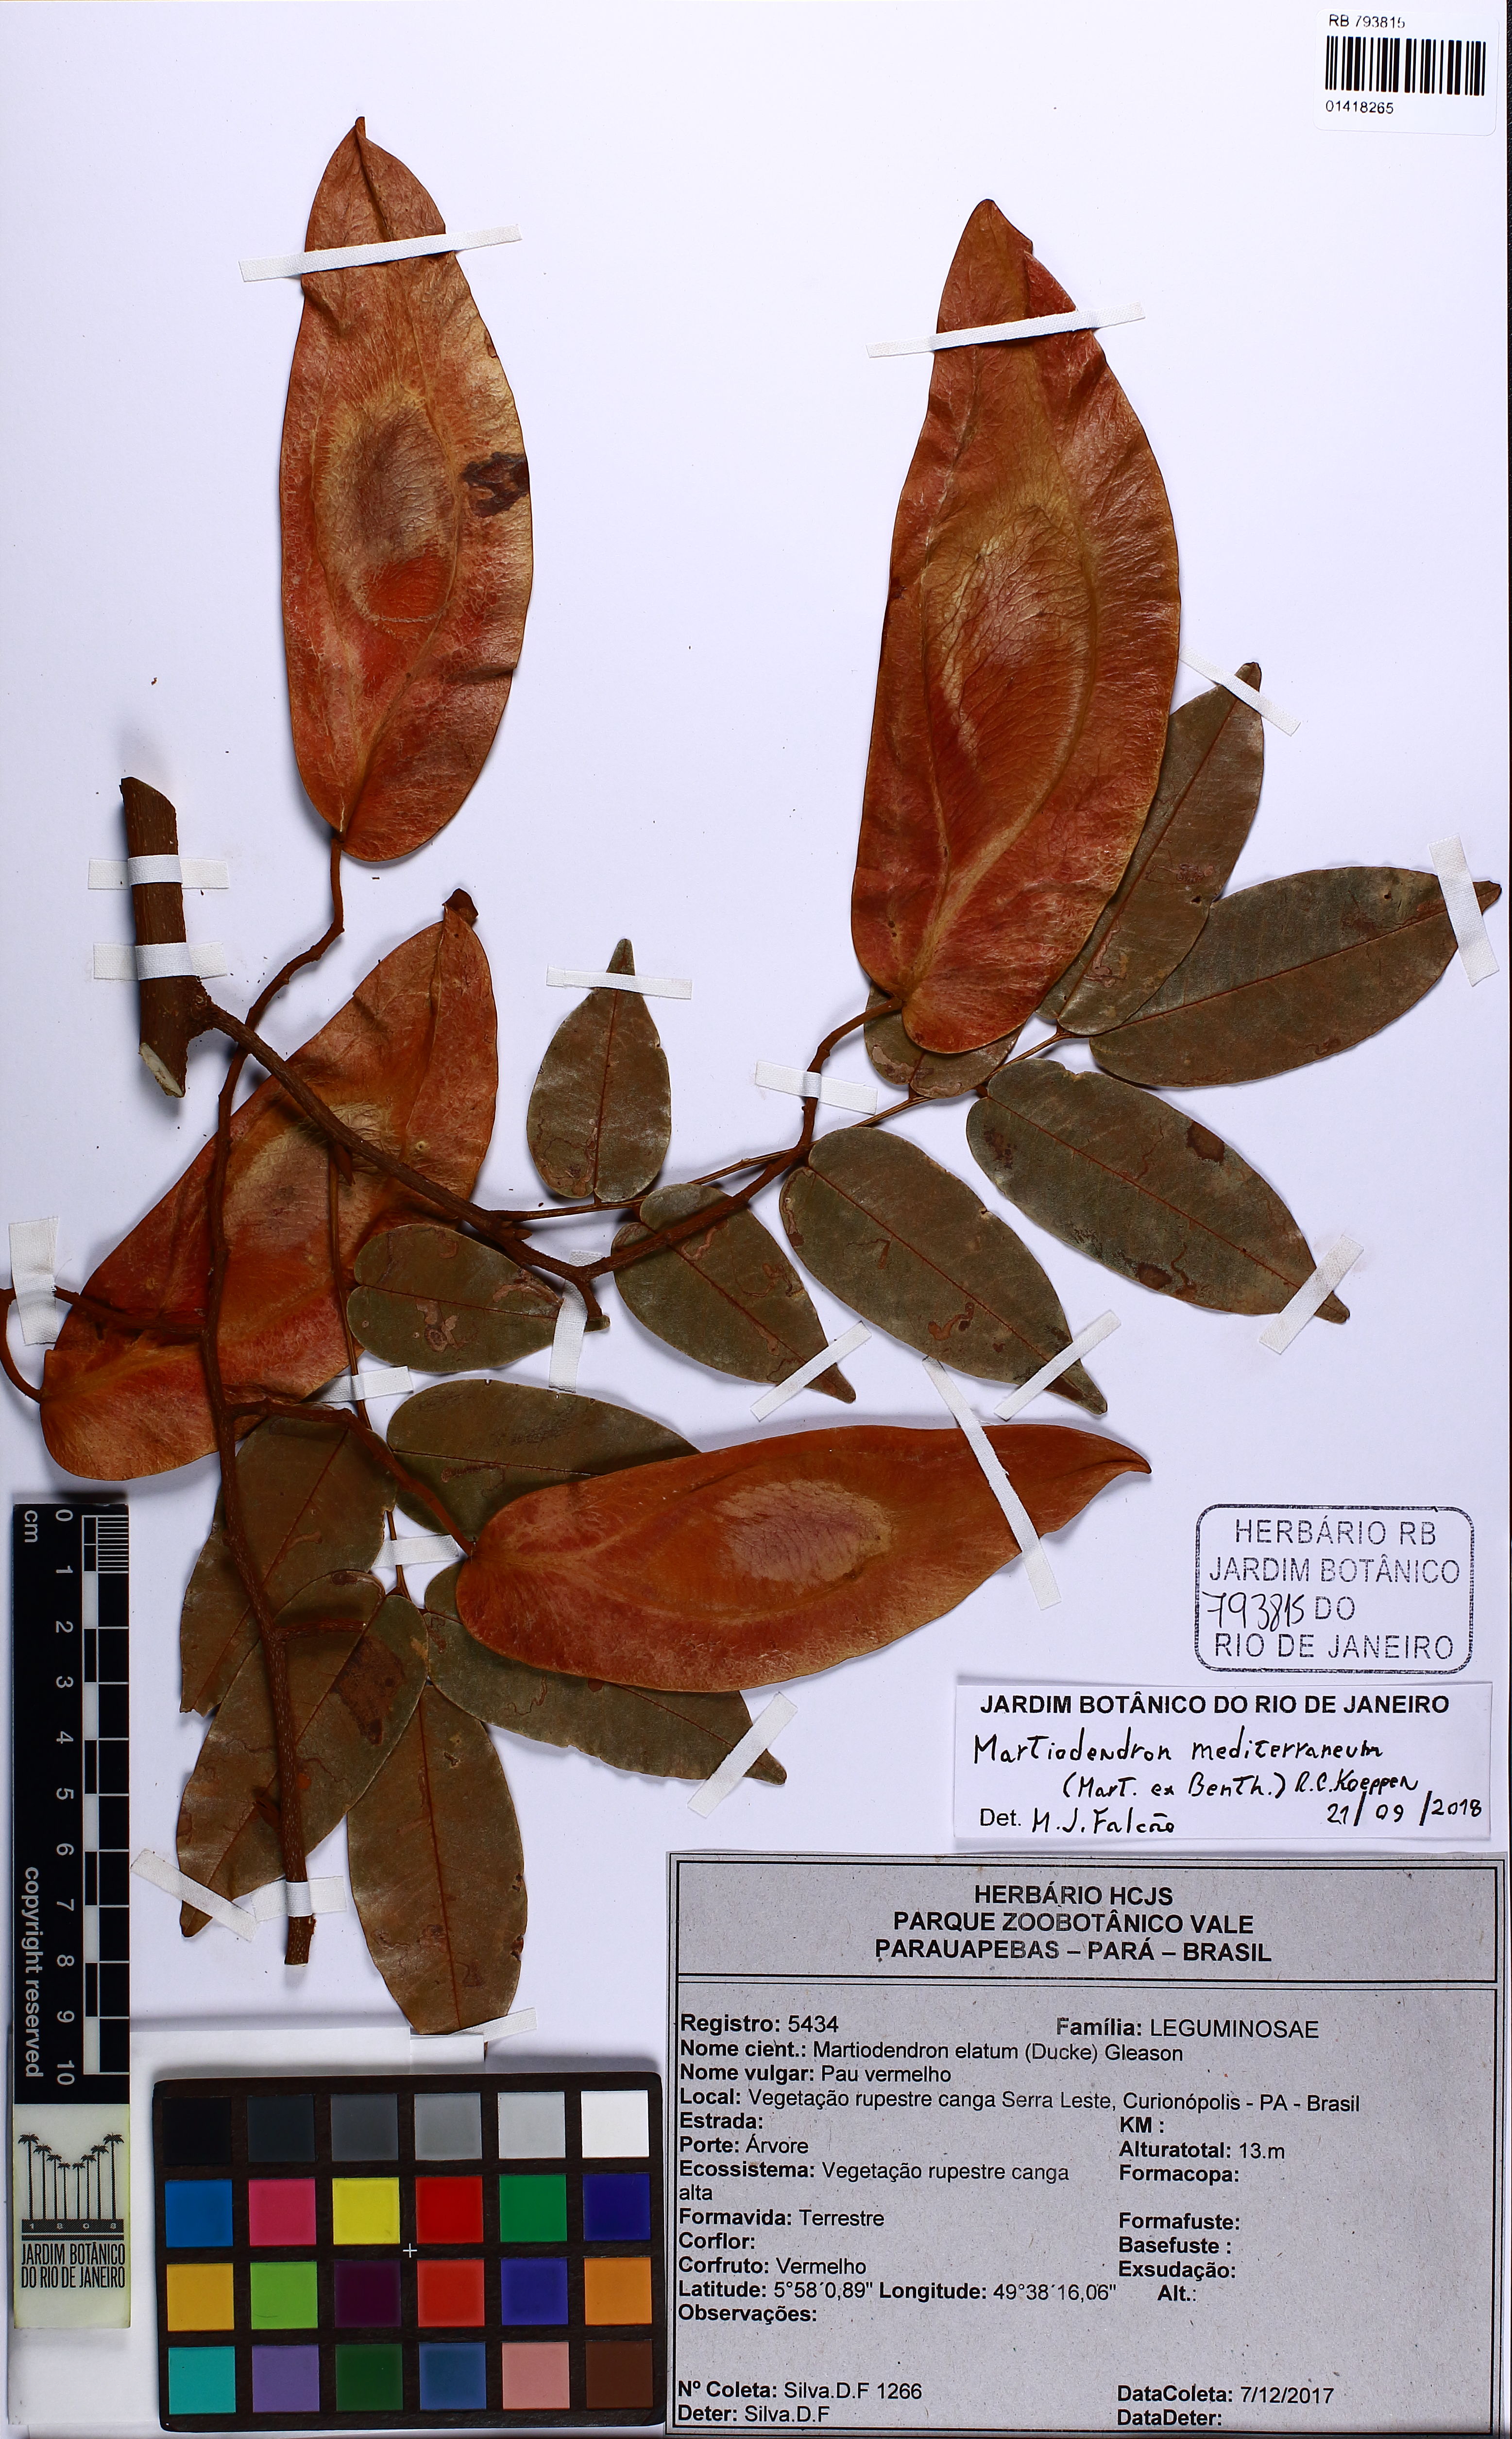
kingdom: Plantae
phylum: Tracheophyta
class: Magnoliopsida
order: Fabales
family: Fabaceae
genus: Martiodendron
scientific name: Martiodendron mediterraneum
